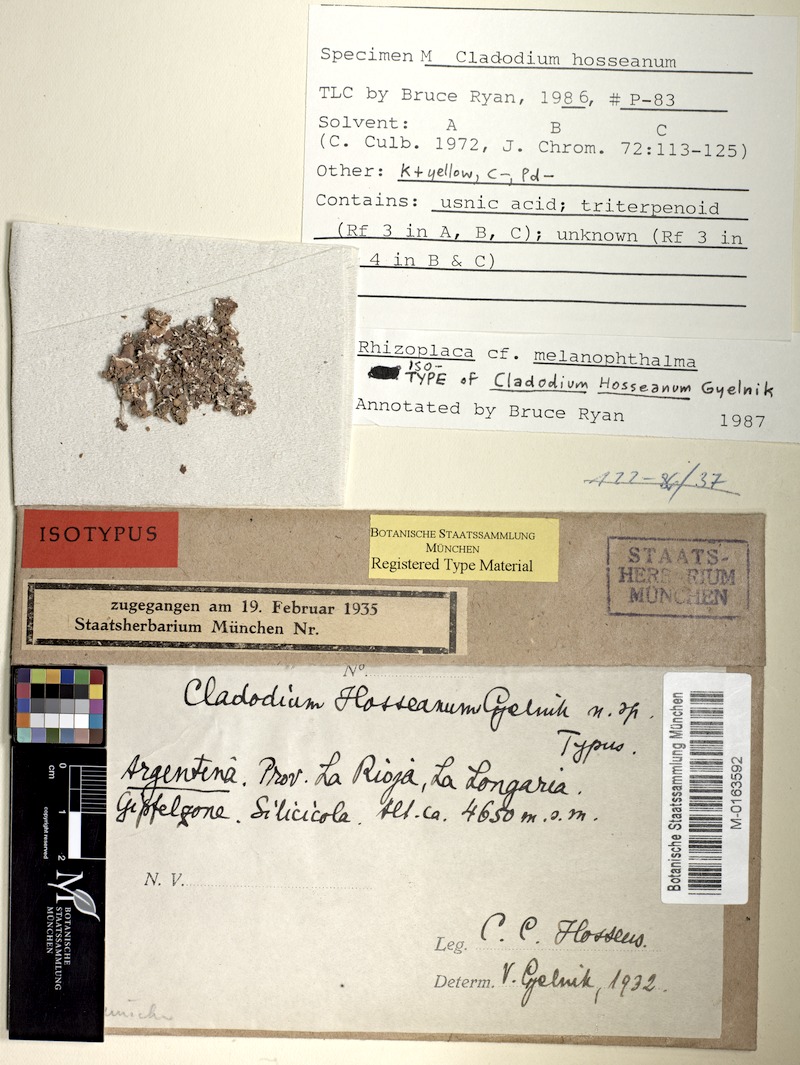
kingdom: Fungi
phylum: Ascomycota
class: Lecanoromycetes
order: Lecanorales
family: Lecanoraceae
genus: Lecanora
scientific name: Lecanora
